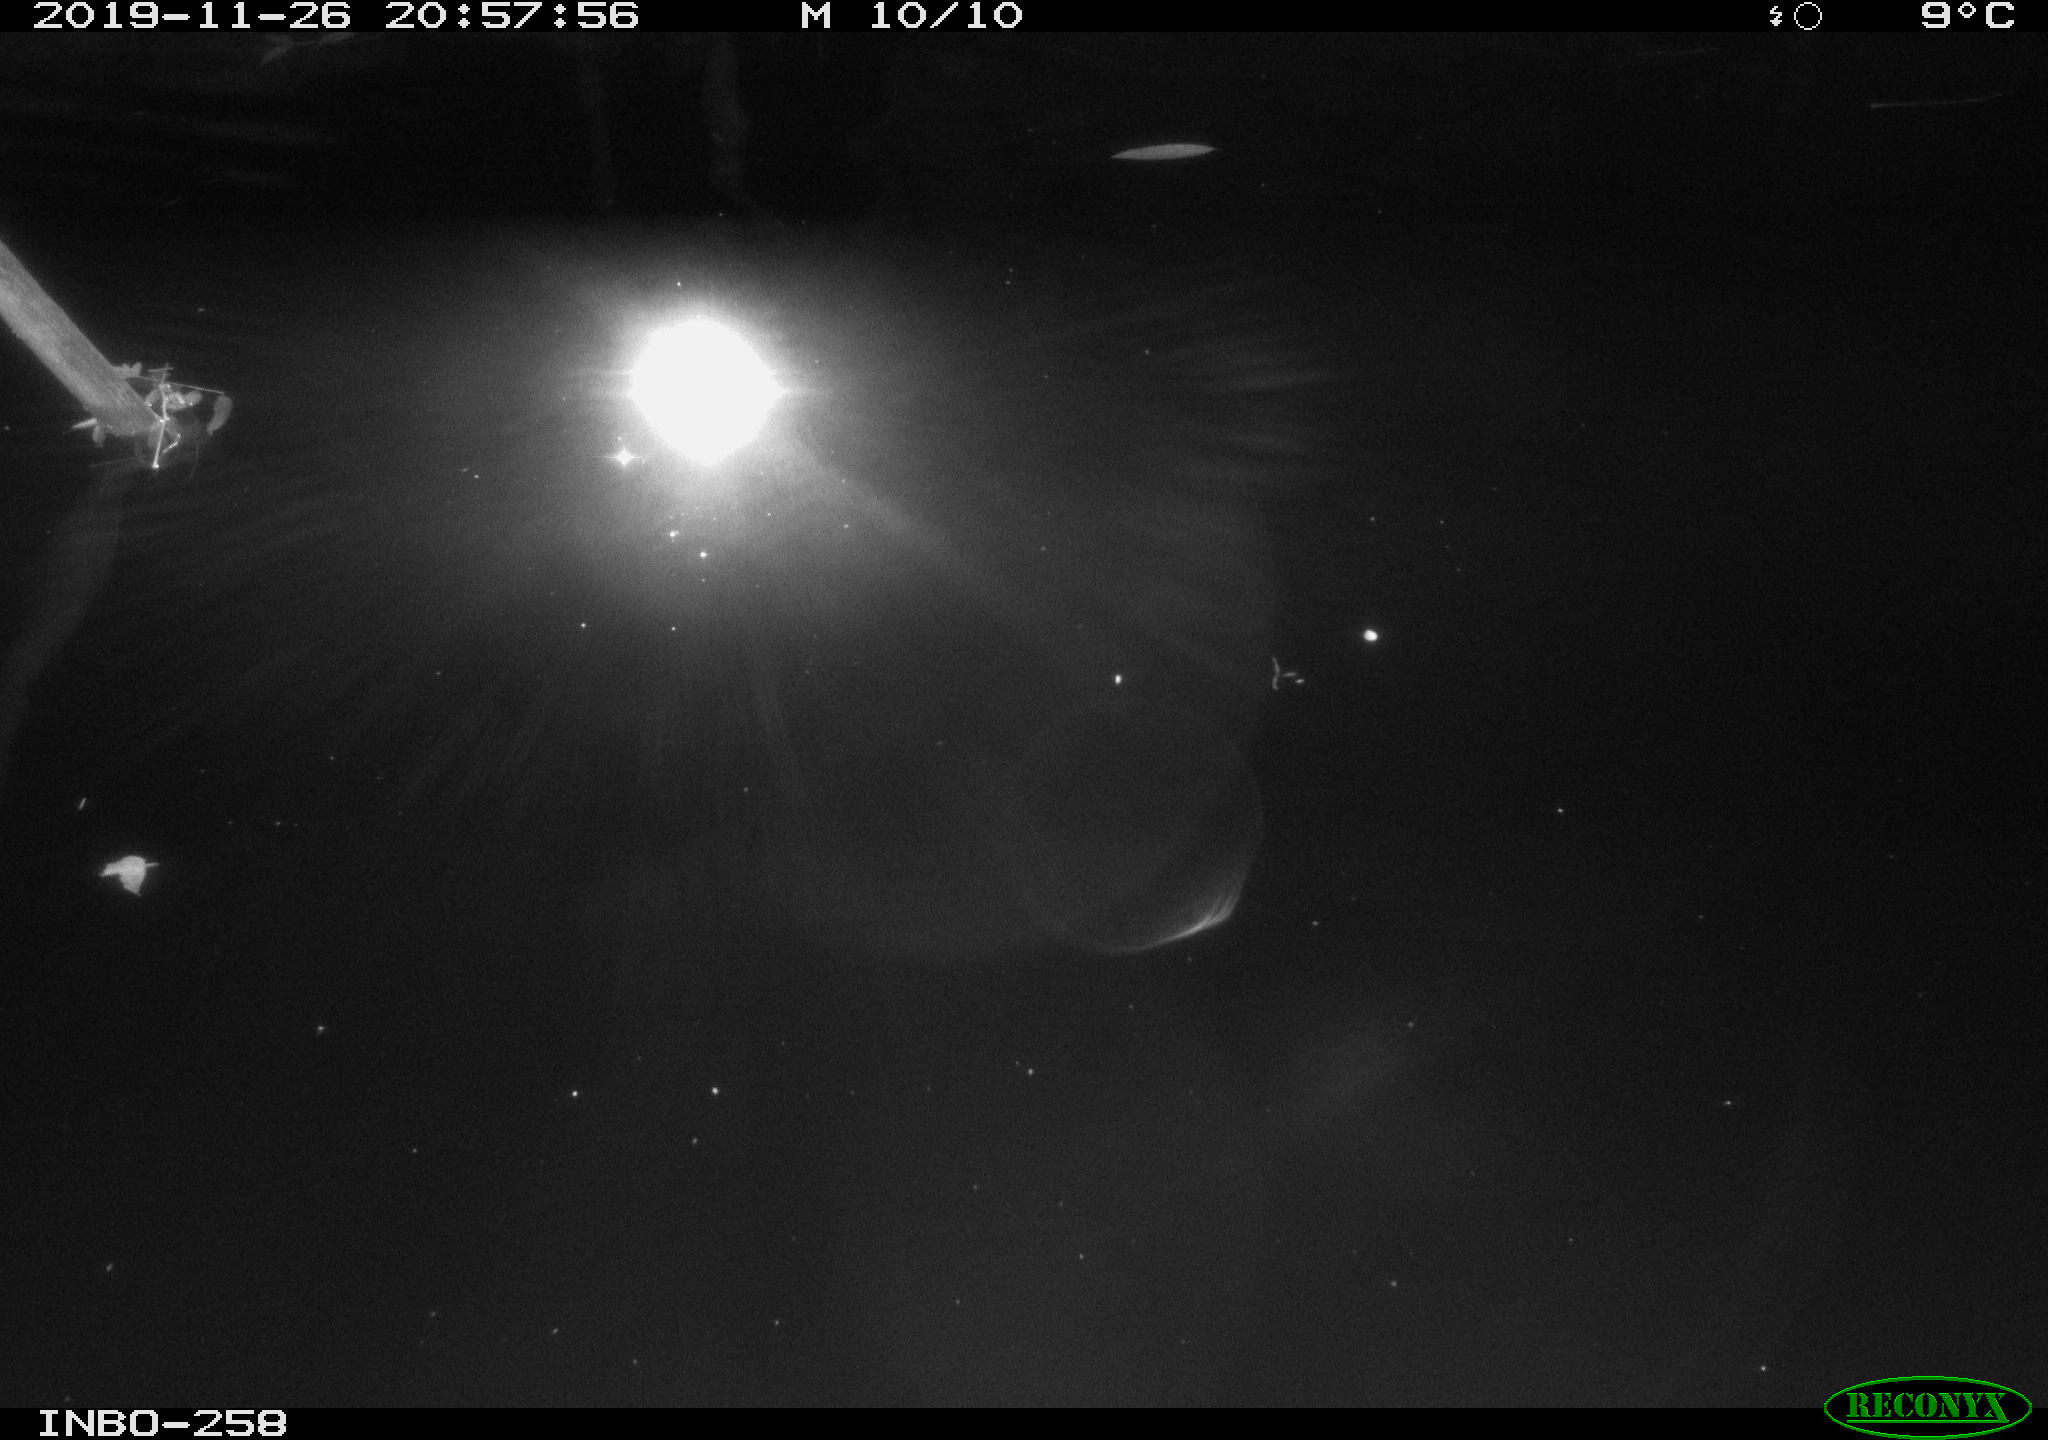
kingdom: Animalia
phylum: Chordata
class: Aves
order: Anseriformes
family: Anatidae
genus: Anas
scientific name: Anas platyrhynchos
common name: Mallard
